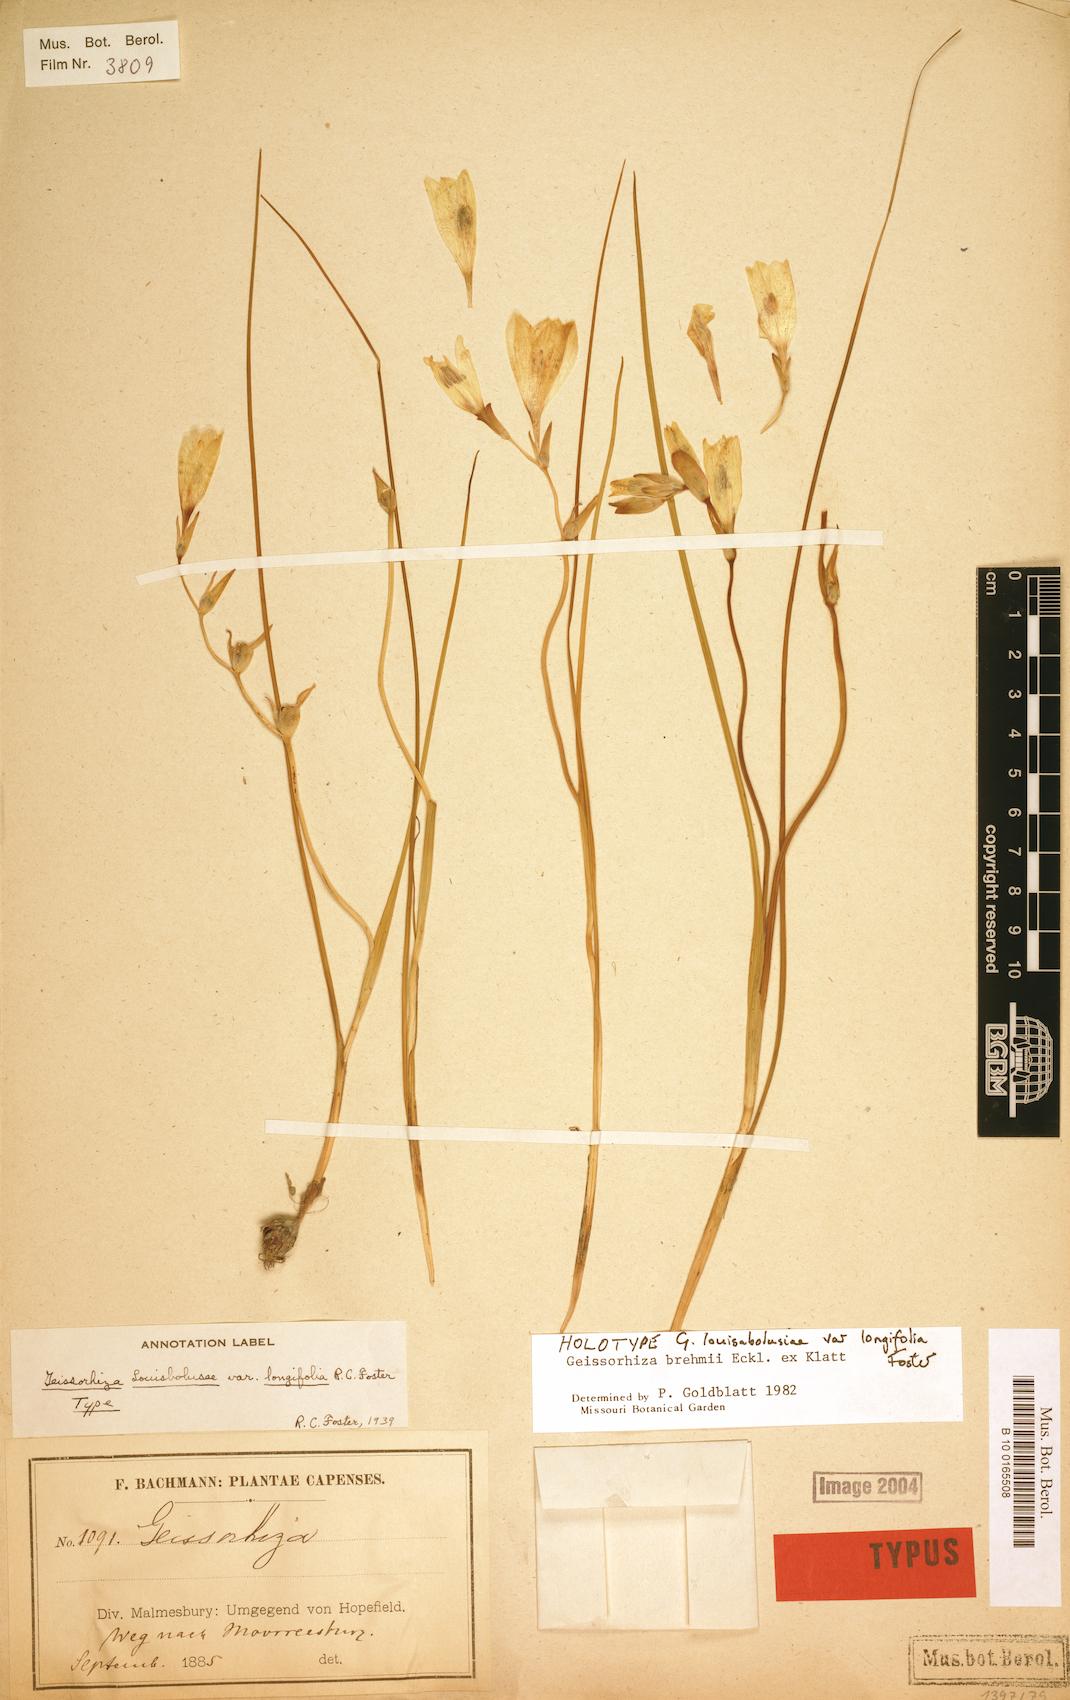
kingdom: Plantae
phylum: Tracheophyta
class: Liliopsida
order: Asparagales
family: Iridaceae
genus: Geissorhiza
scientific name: Geissorhiza brehmii
